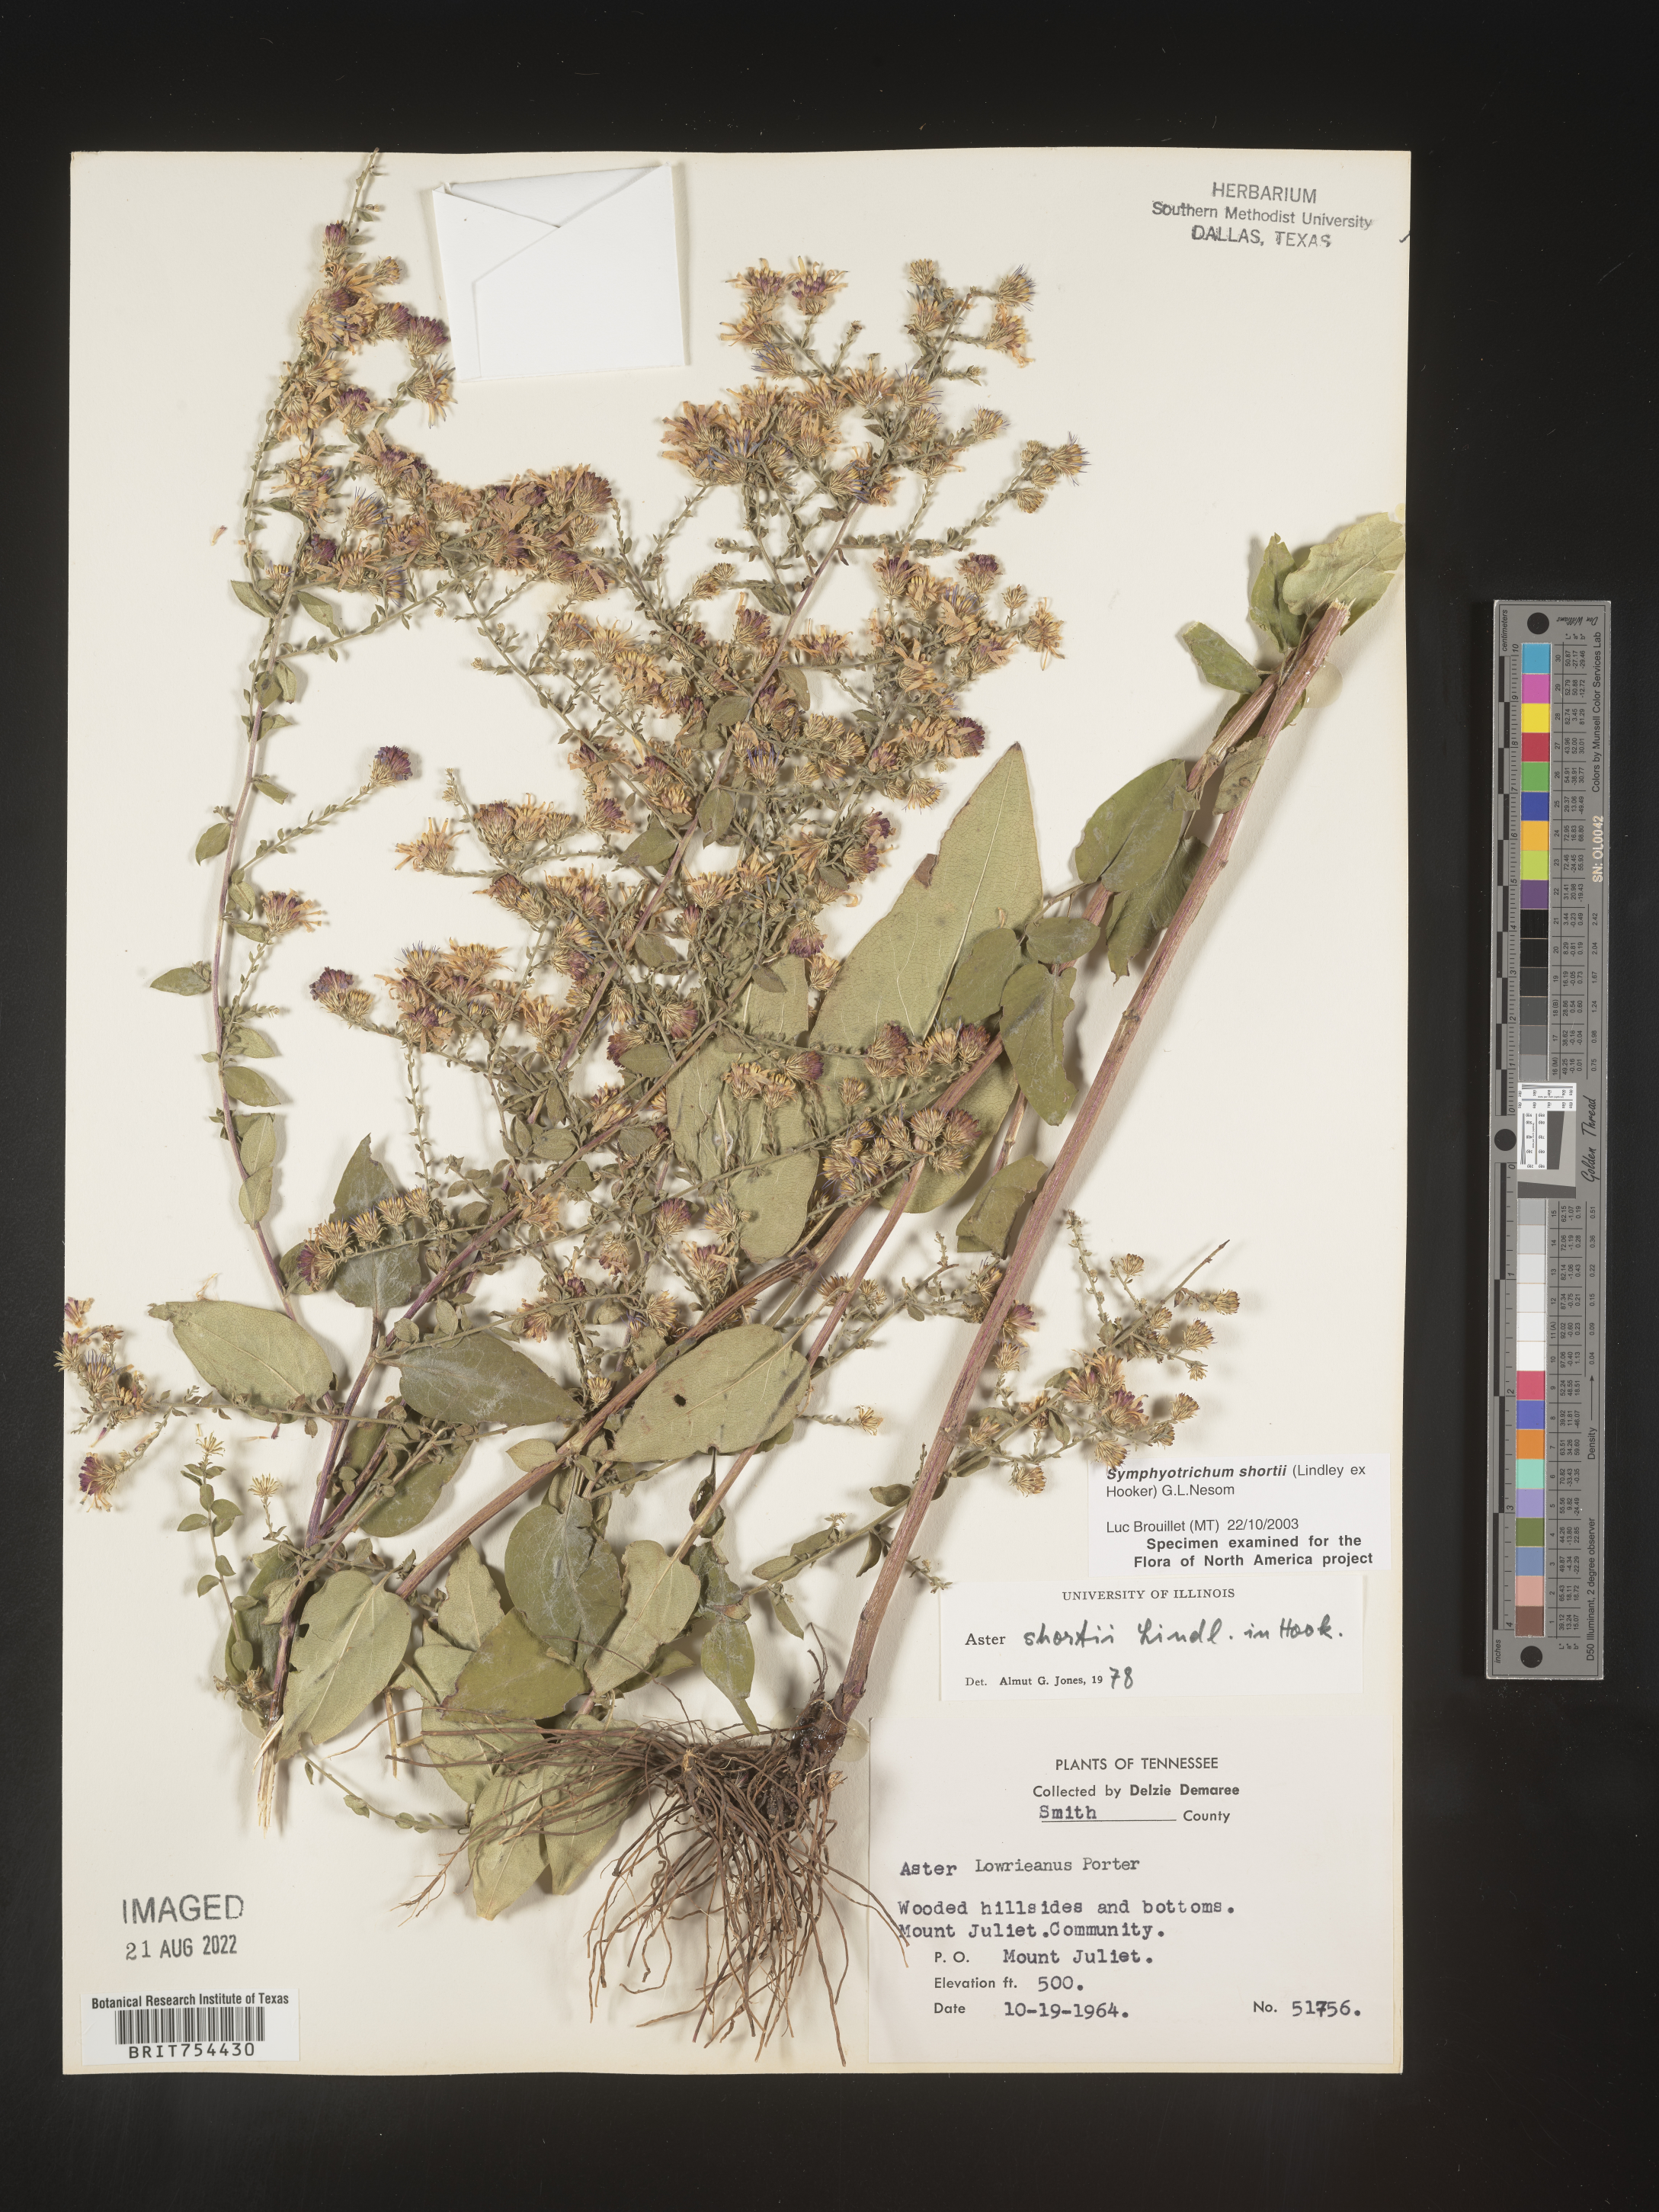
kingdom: Plantae
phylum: Tracheophyta
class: Magnoliopsida
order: Asterales
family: Asteraceae
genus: Symphyotrichum
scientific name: Symphyotrichum shortii
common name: Short's aster
